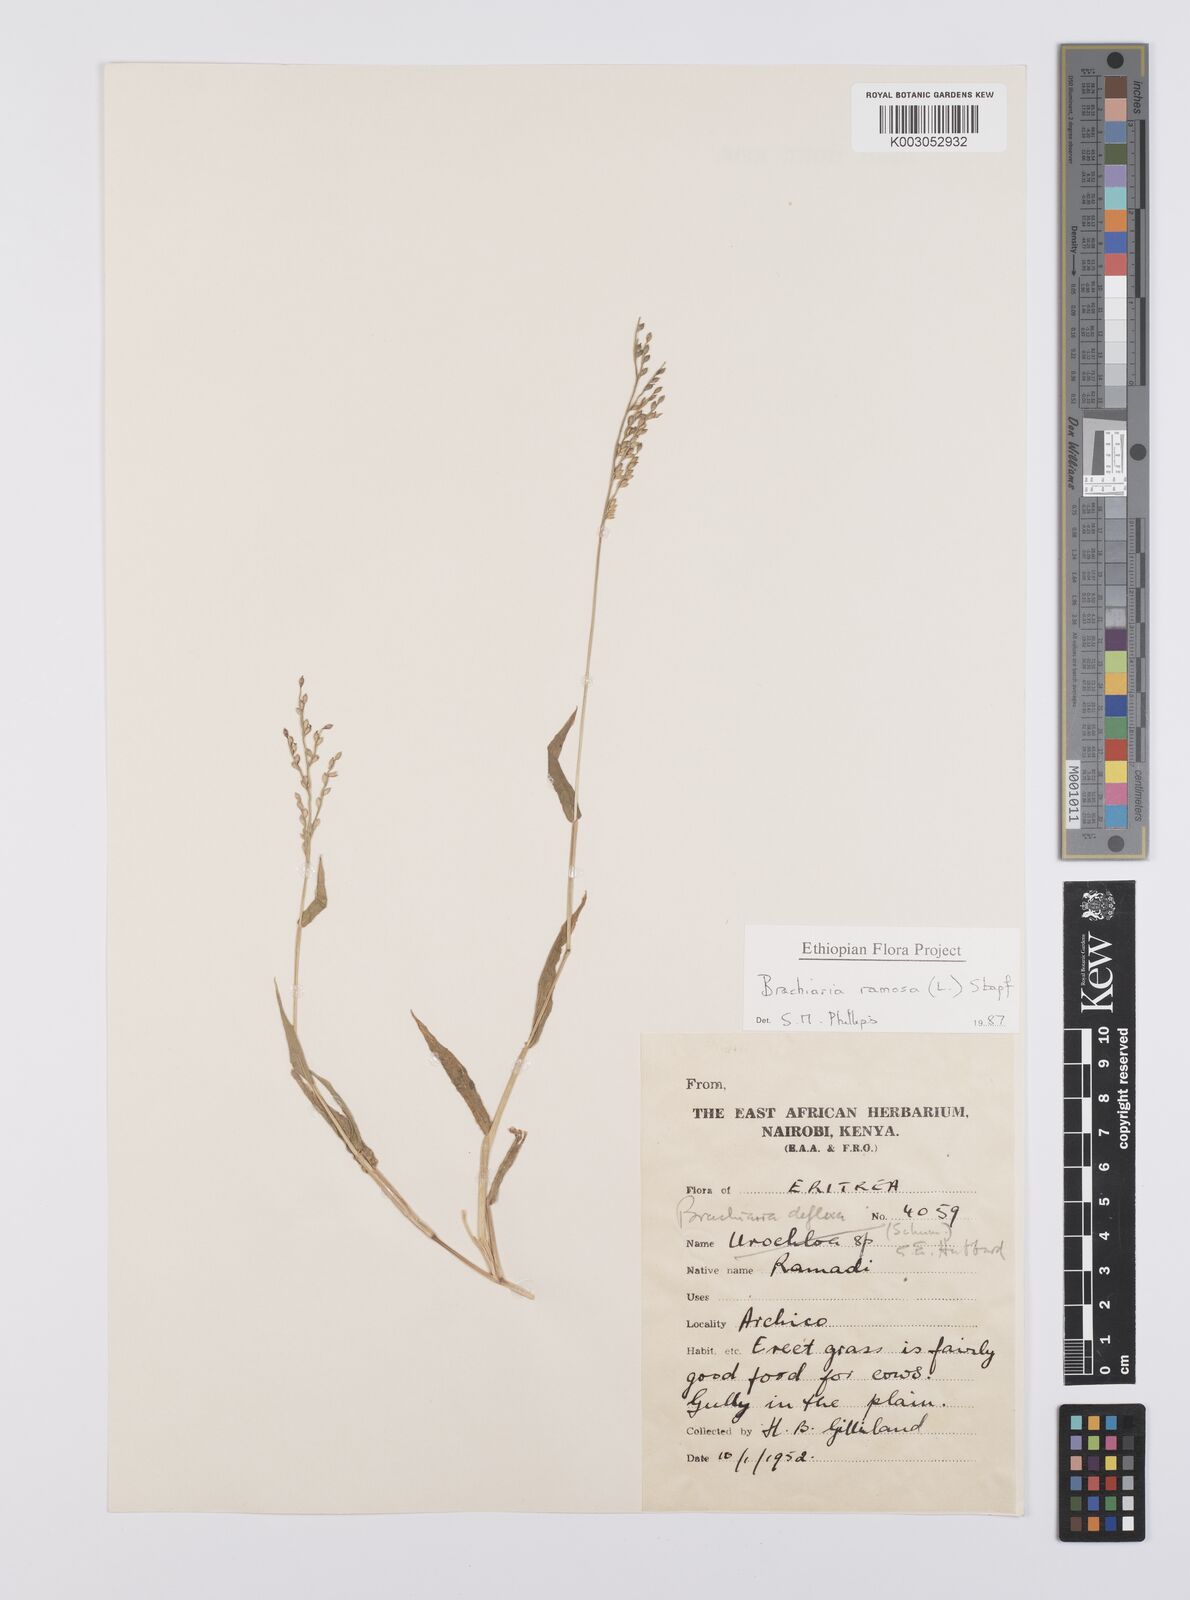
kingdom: Plantae
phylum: Tracheophyta
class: Liliopsida
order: Poales
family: Poaceae
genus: Urochloa
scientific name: Urochloa ramosa
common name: Browntop millet
